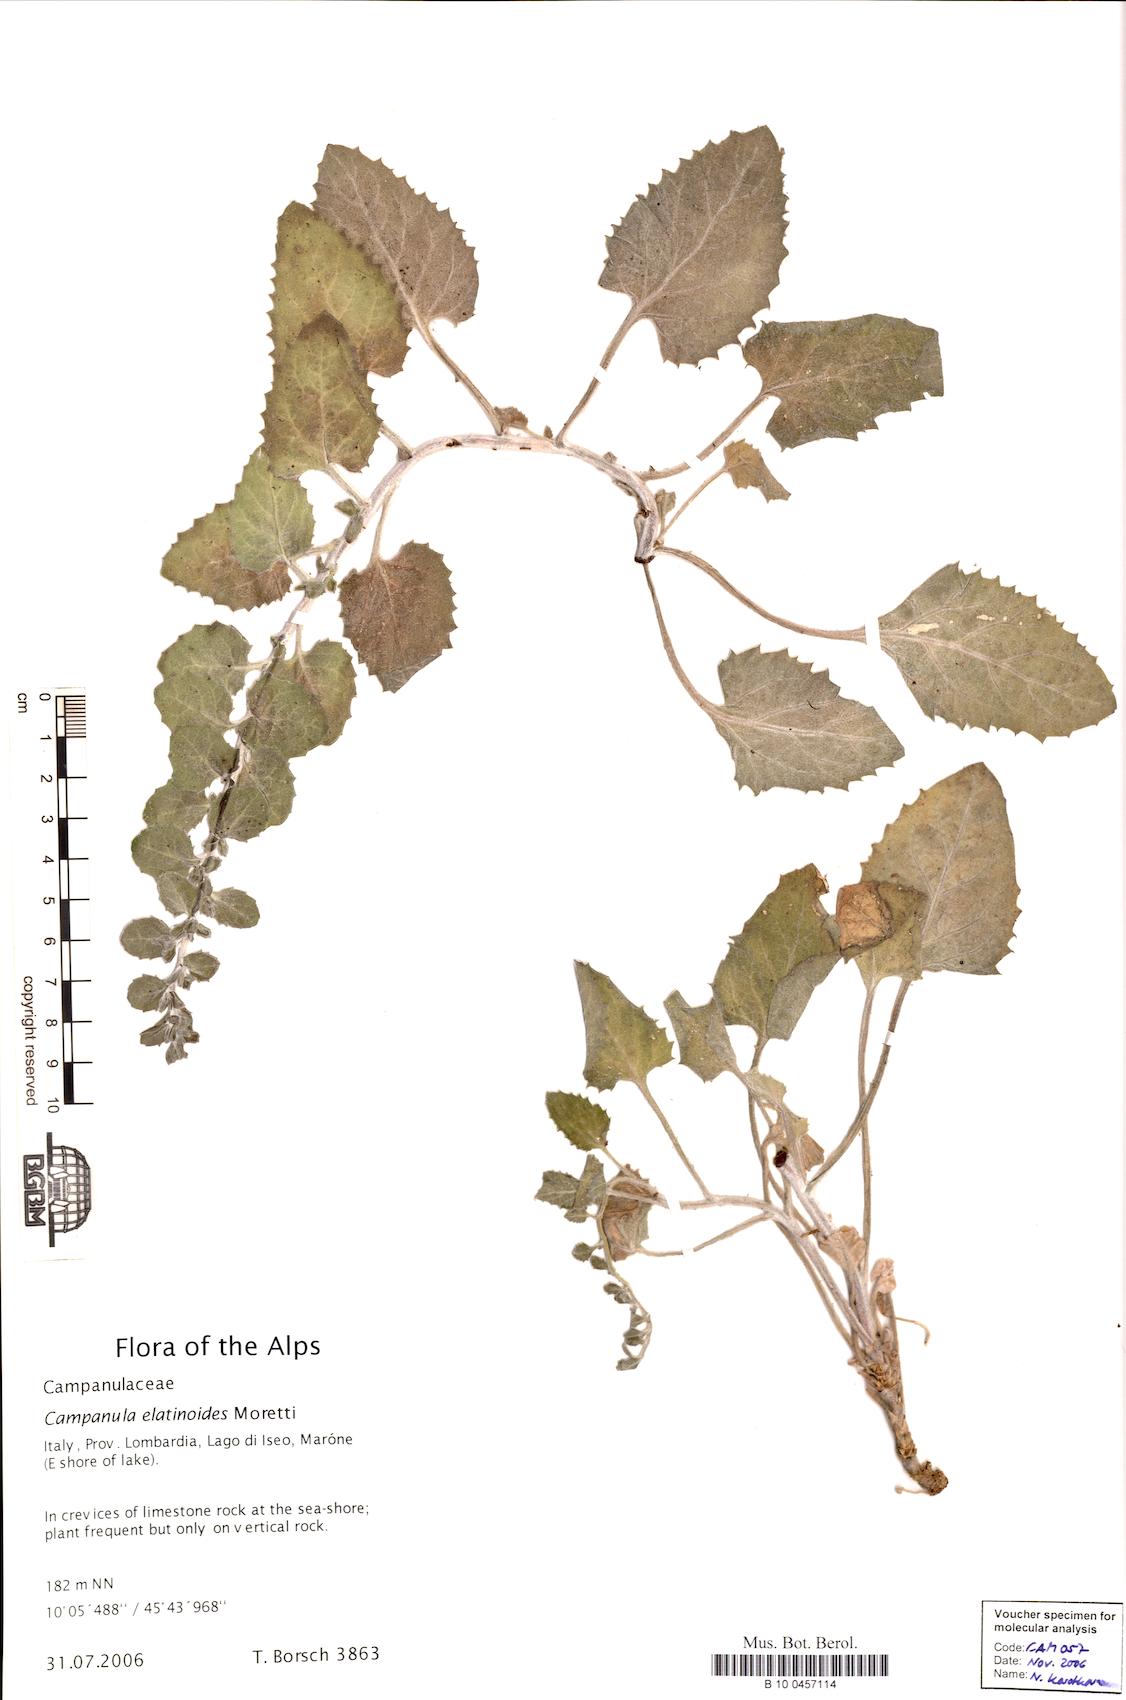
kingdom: Plantae
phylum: Tracheophyta
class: Magnoliopsida
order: Asterales
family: Campanulaceae
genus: Campanula
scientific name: Campanula elatinoides
